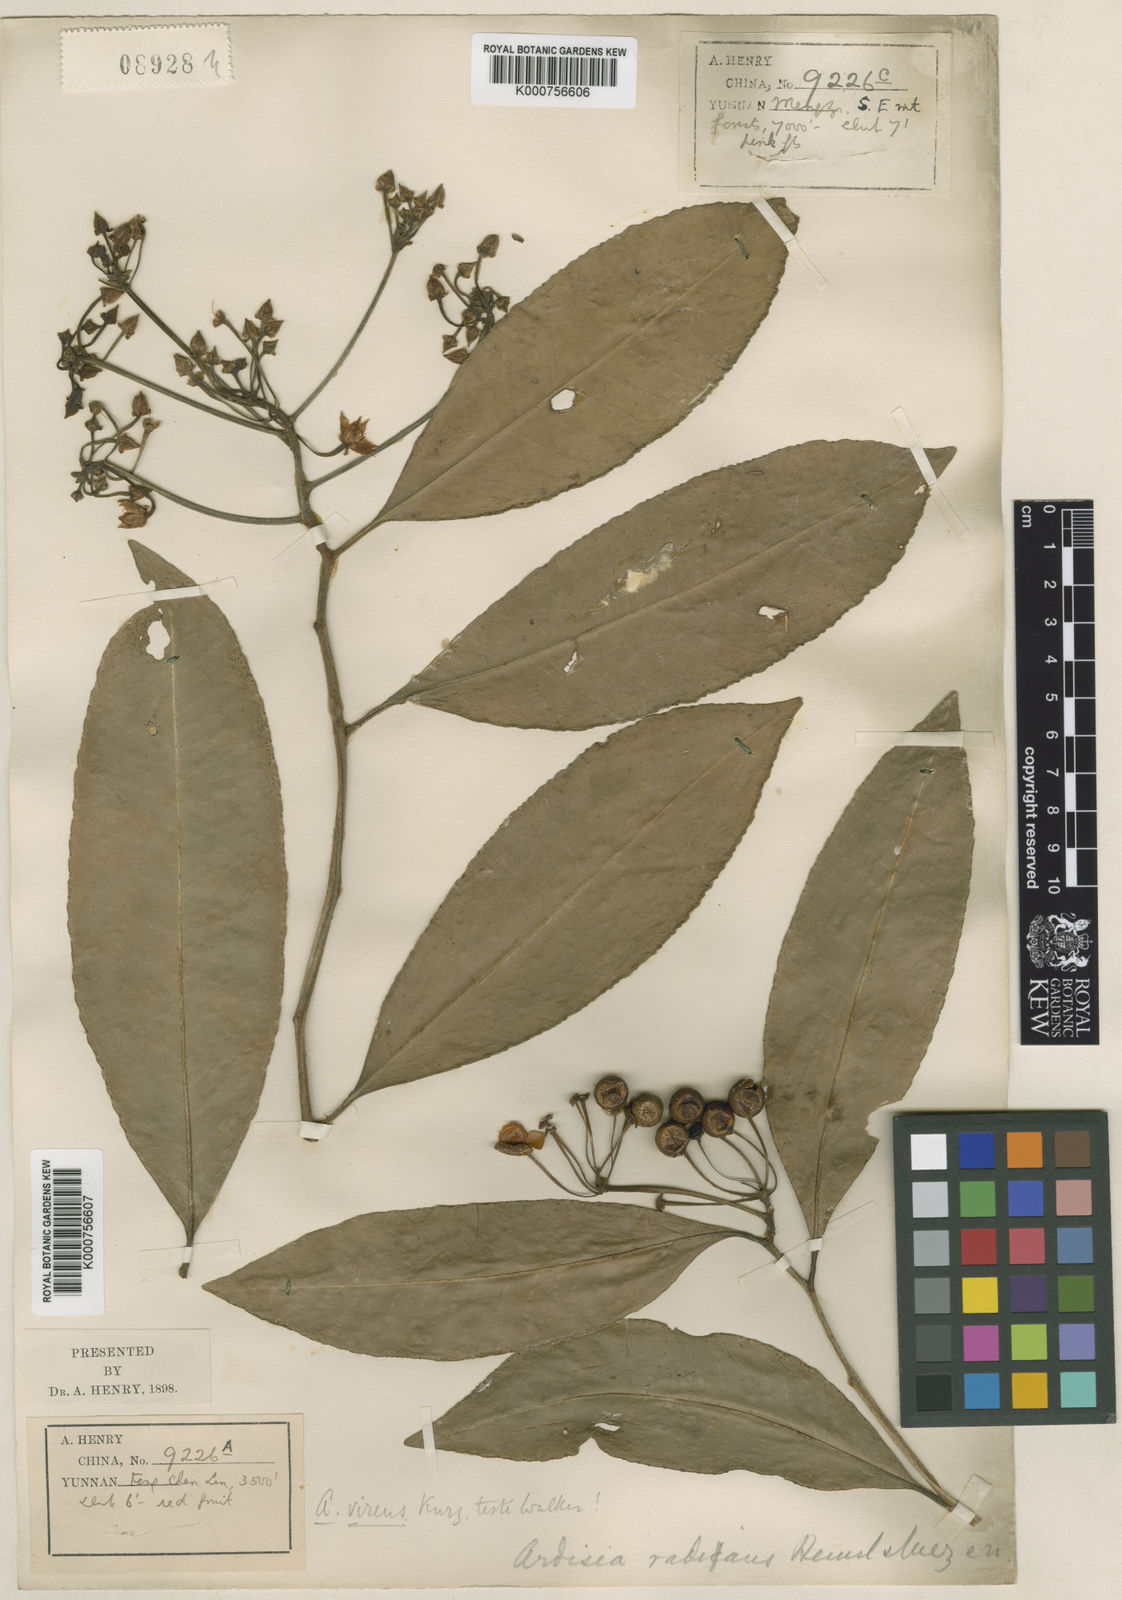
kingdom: Plantae
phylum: Tracheophyta
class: Magnoliopsida
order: Ericales
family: Primulaceae
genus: Ardisia
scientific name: Ardisia polysticta
